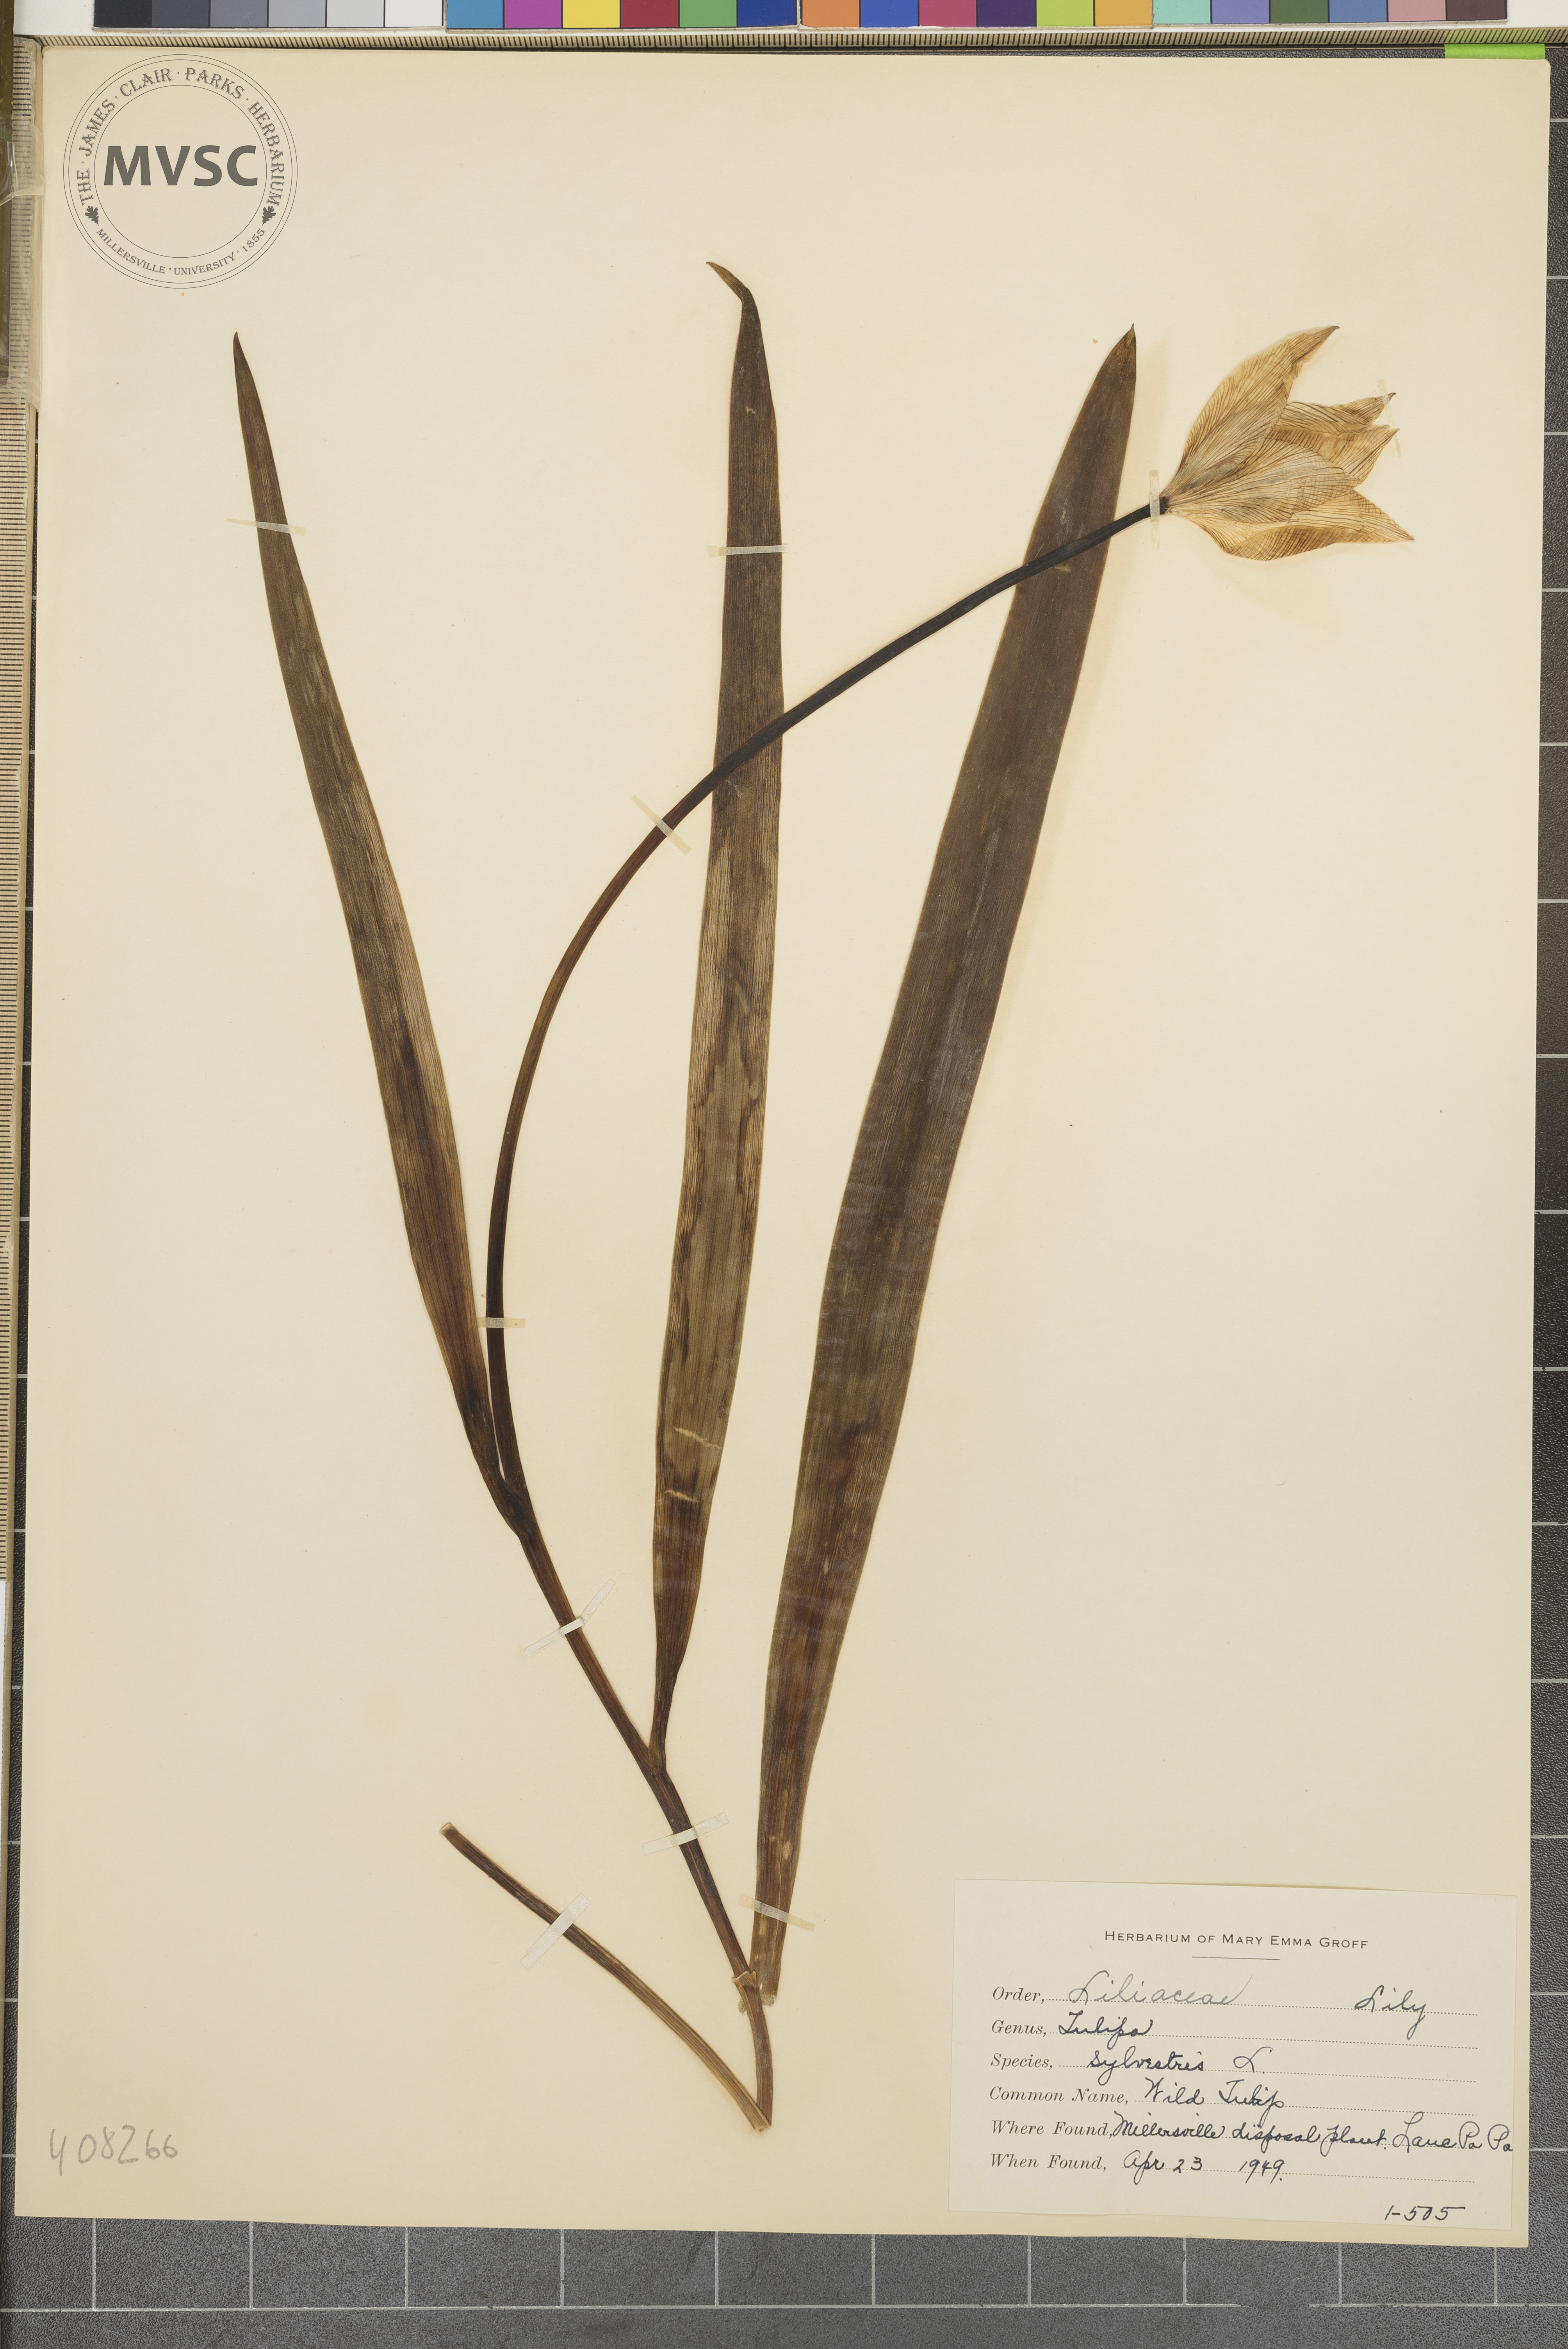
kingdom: Plantae
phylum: Tracheophyta
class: Liliopsida
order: Liliales
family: Liliaceae
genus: Tulipa
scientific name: Tulipa sylvestris
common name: Wild Tulip
